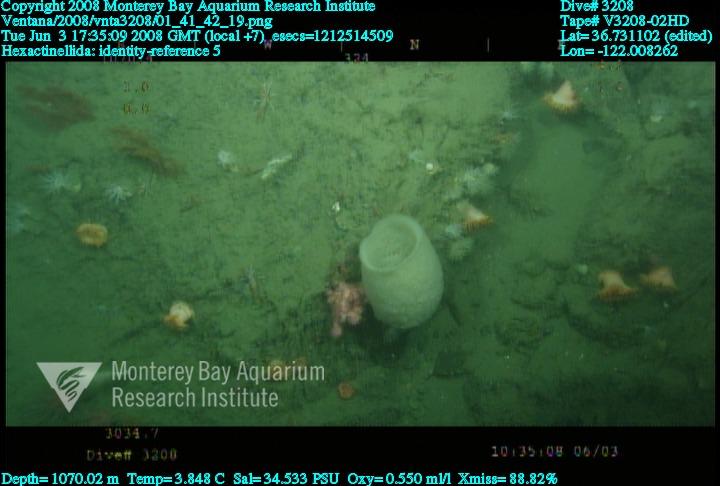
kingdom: Animalia
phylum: Porifera
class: Hexactinellida
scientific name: Hexactinellida
